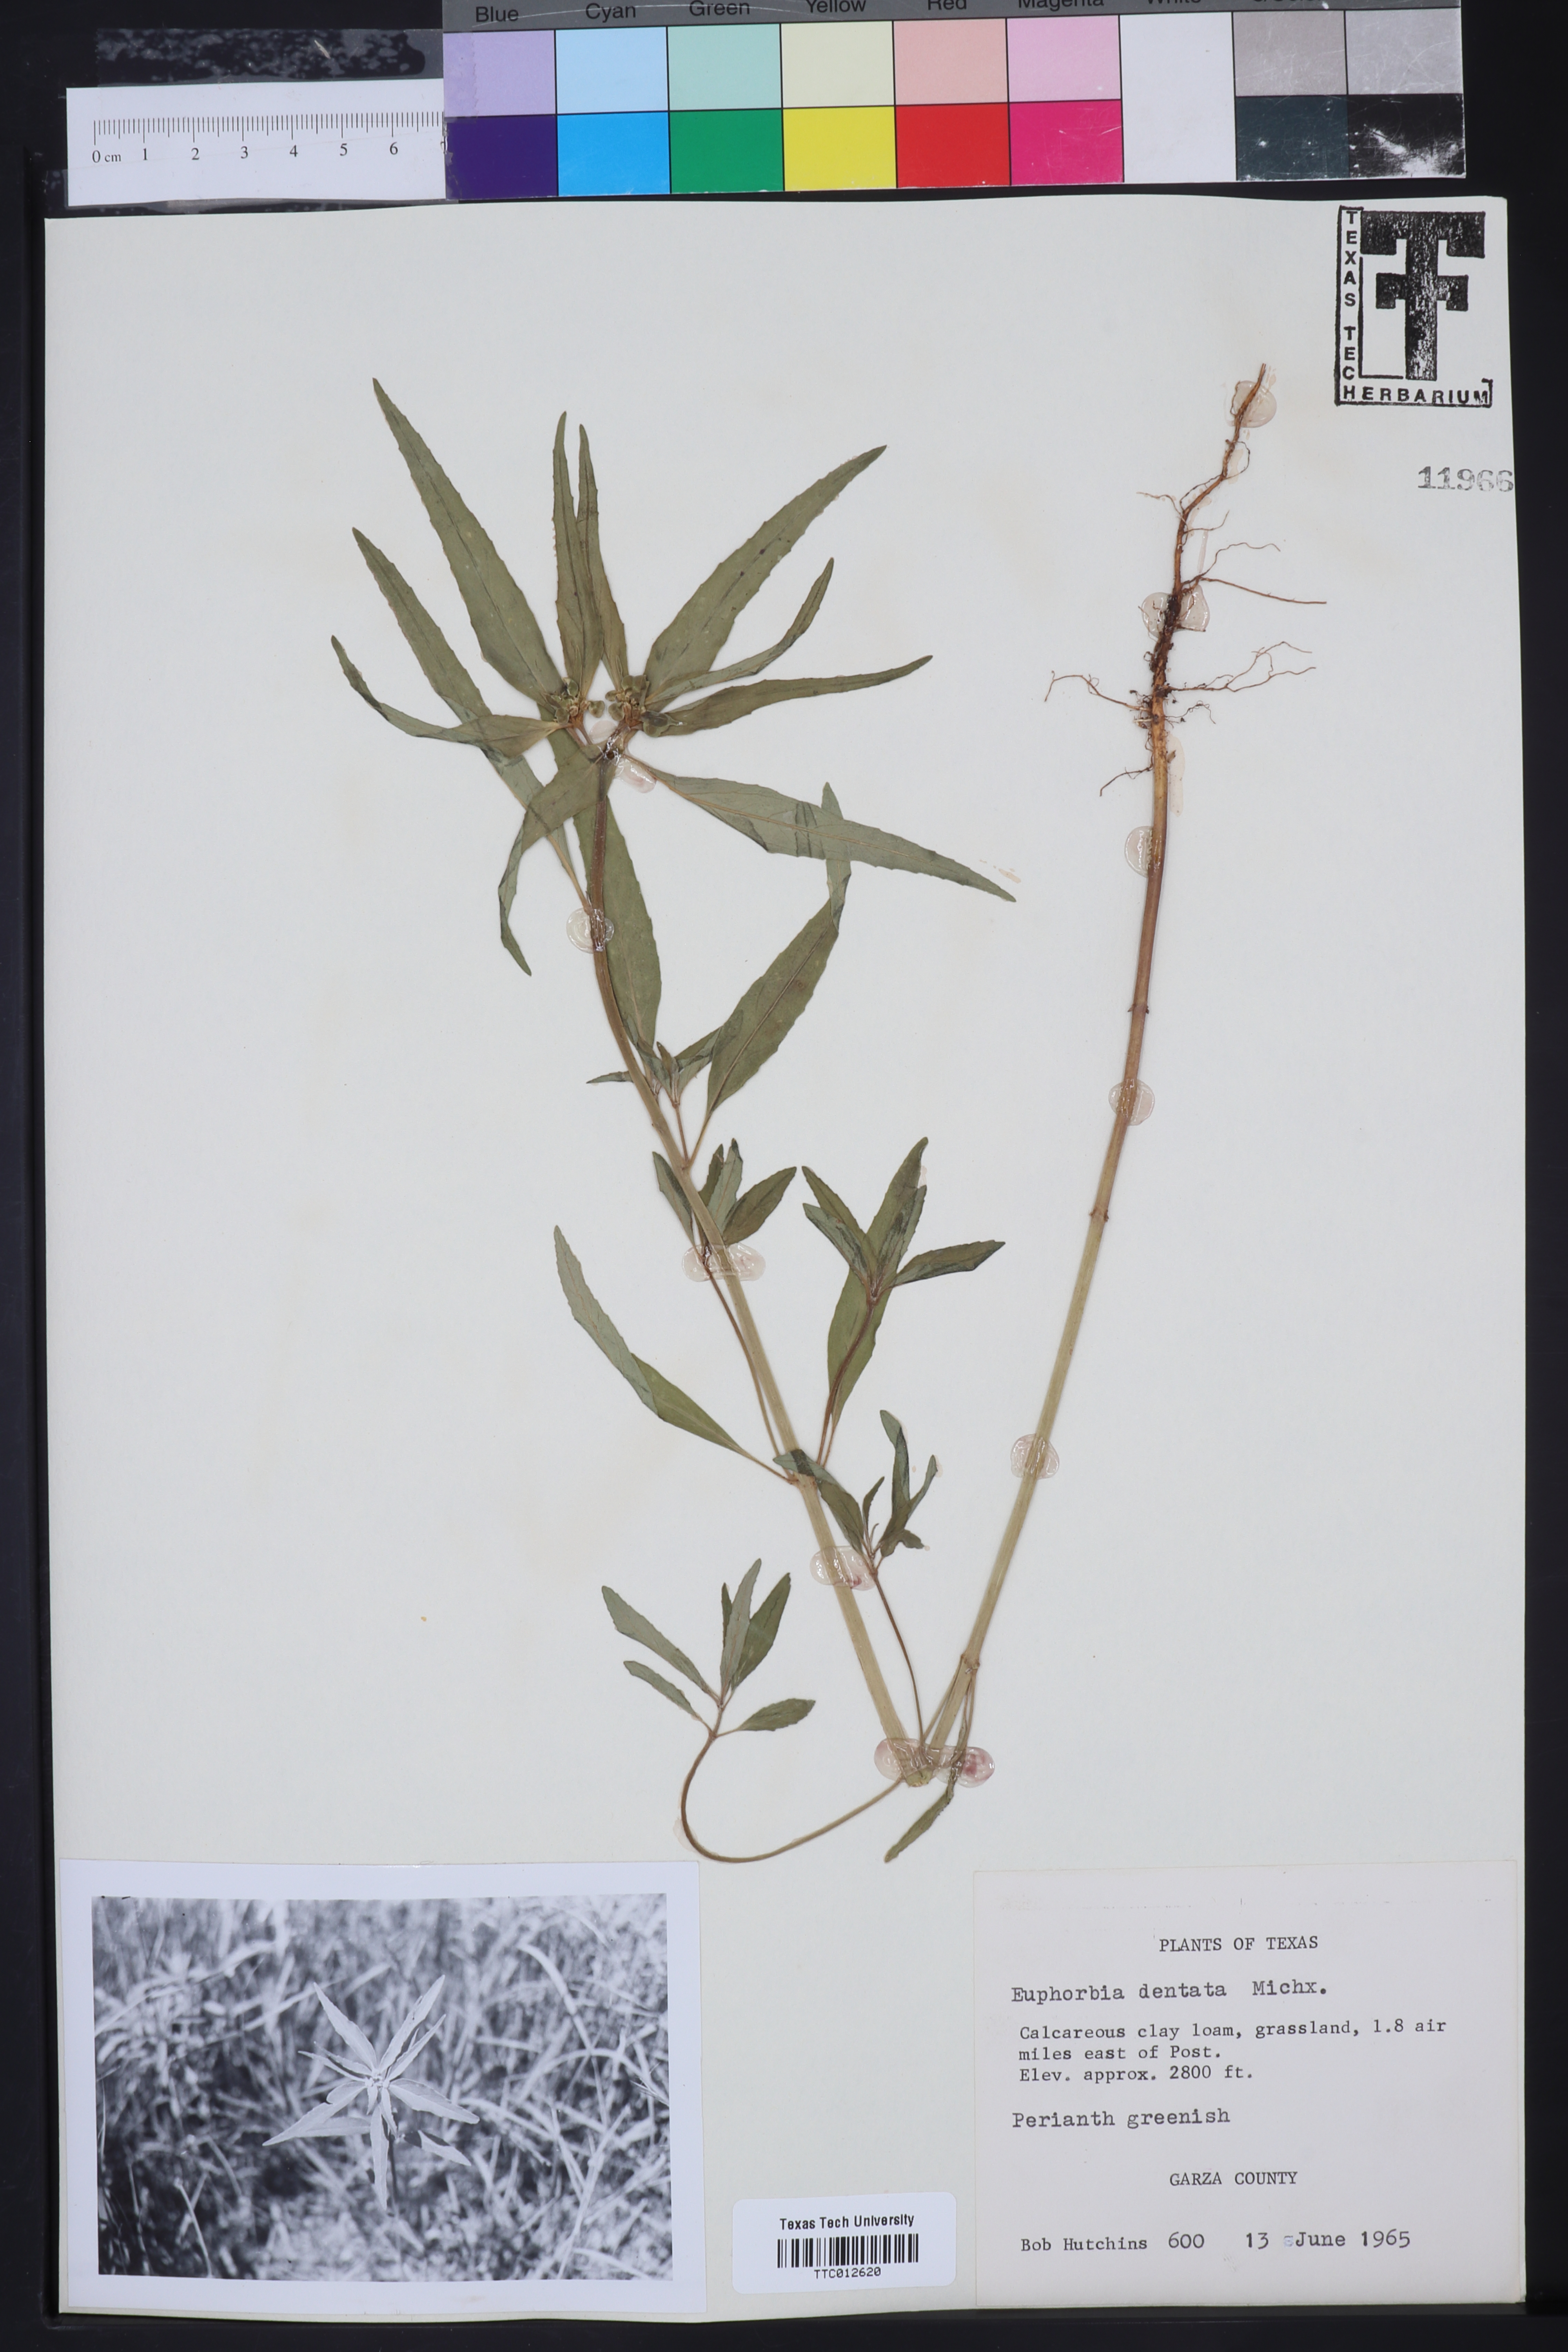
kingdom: Plantae
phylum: Tracheophyta
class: Magnoliopsida
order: Malpighiales
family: Euphorbiaceae
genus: Euphorbia
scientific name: Euphorbia dentata
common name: Dentate spurge
